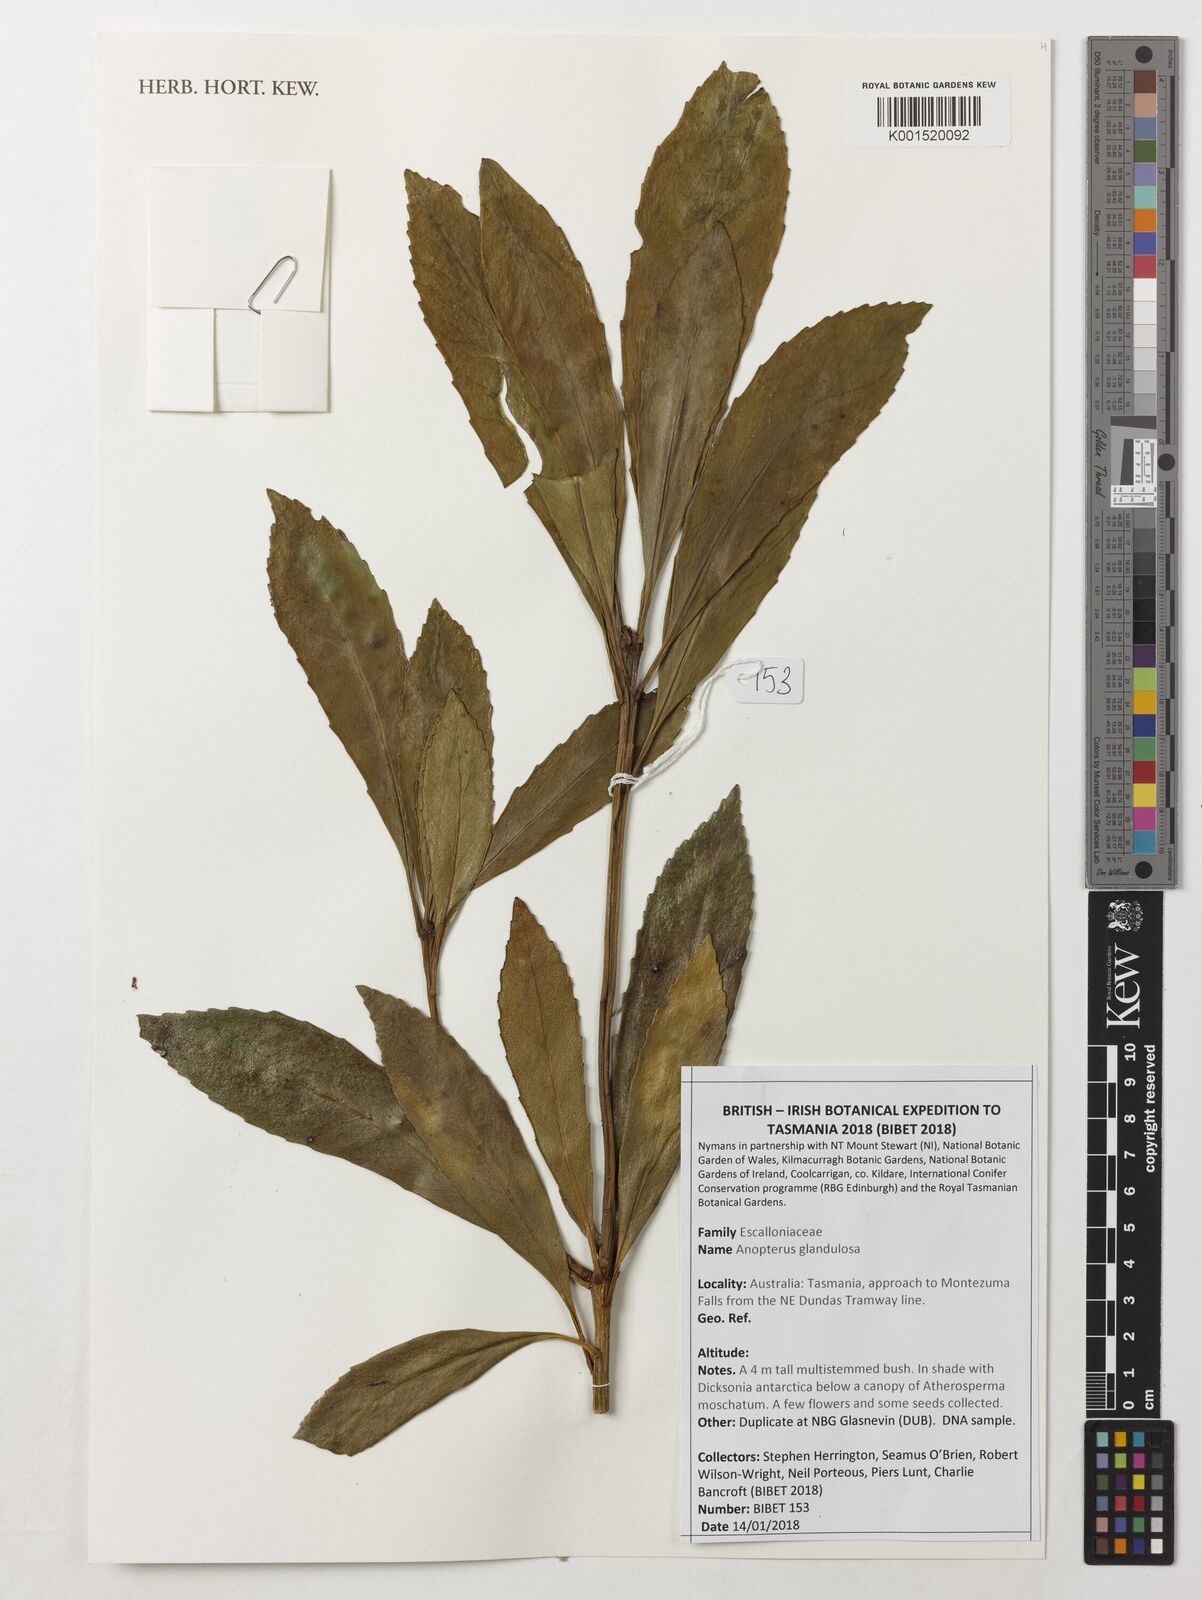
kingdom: Plantae
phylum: Tracheophyta
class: Magnoliopsida
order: Escalloniales
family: Escalloniaceae
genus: Anopterus
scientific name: Anopterus glandulosus
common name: Tasmanian-laurel
